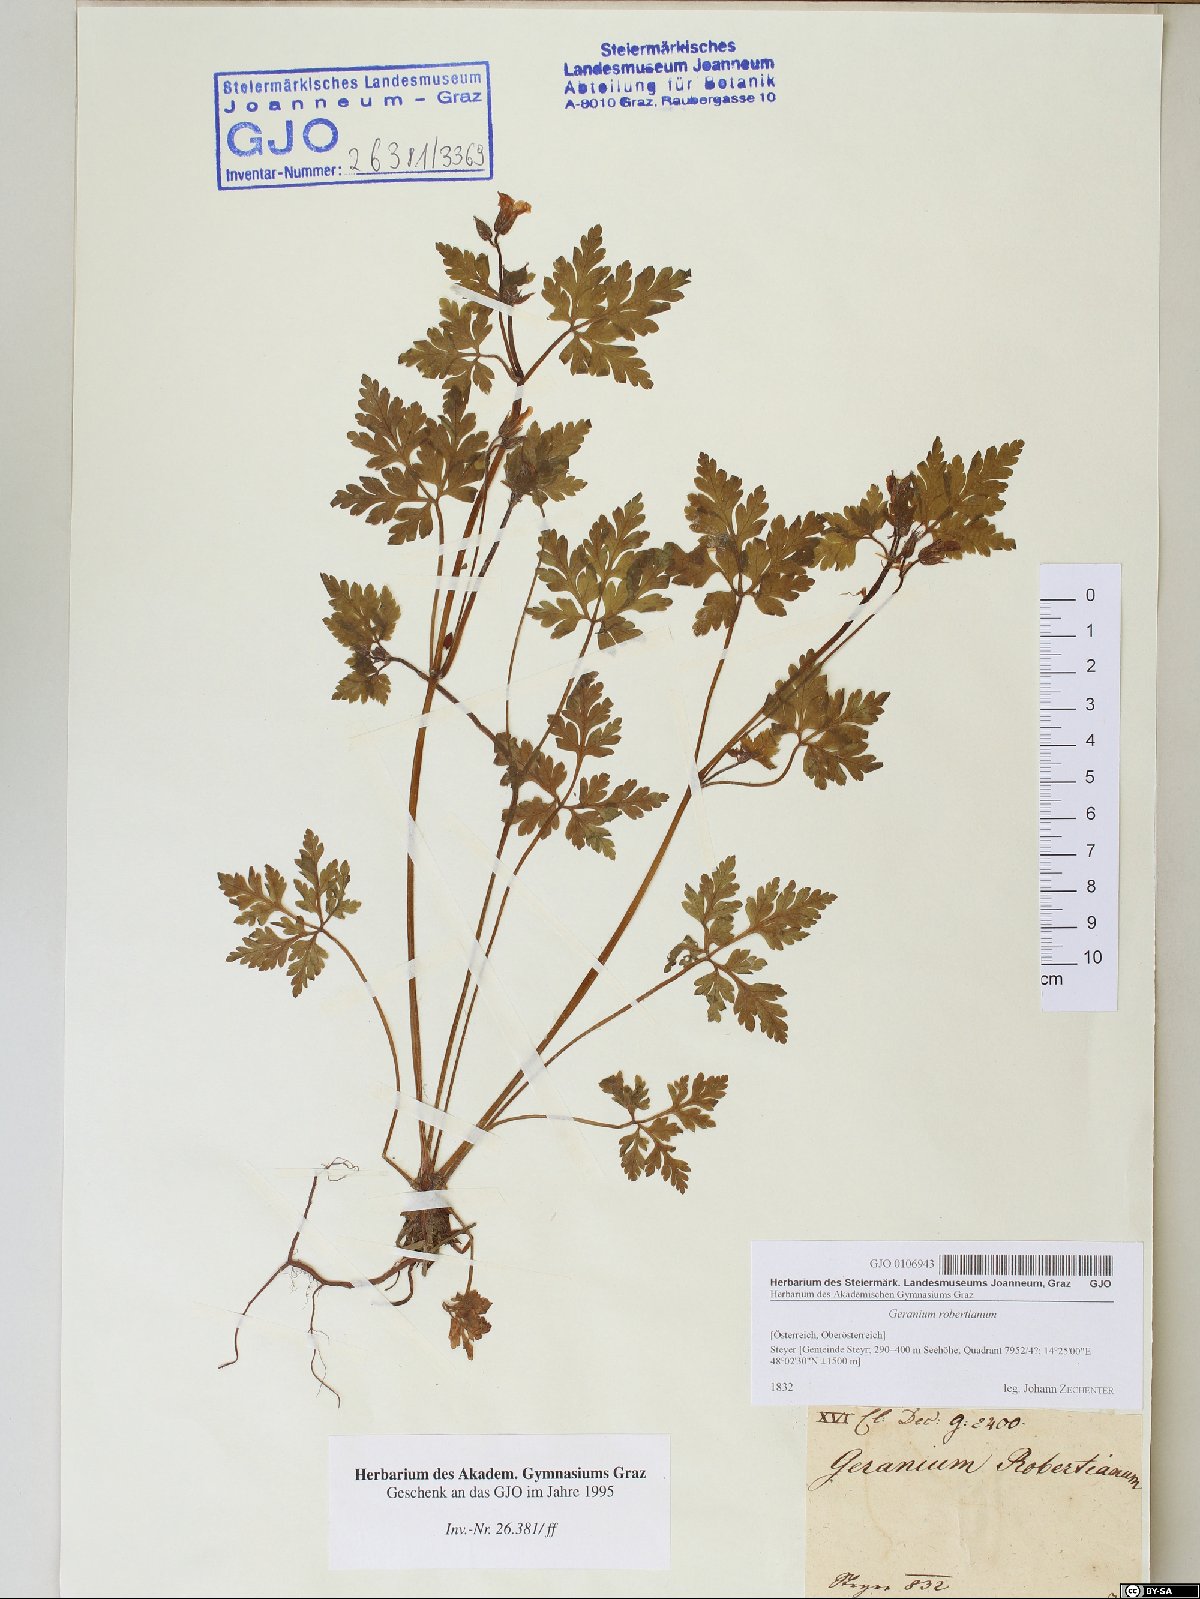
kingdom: Plantae
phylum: Tracheophyta
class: Magnoliopsida
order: Geraniales
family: Geraniaceae
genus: Geranium
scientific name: Geranium robertianum
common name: Herb-robert
